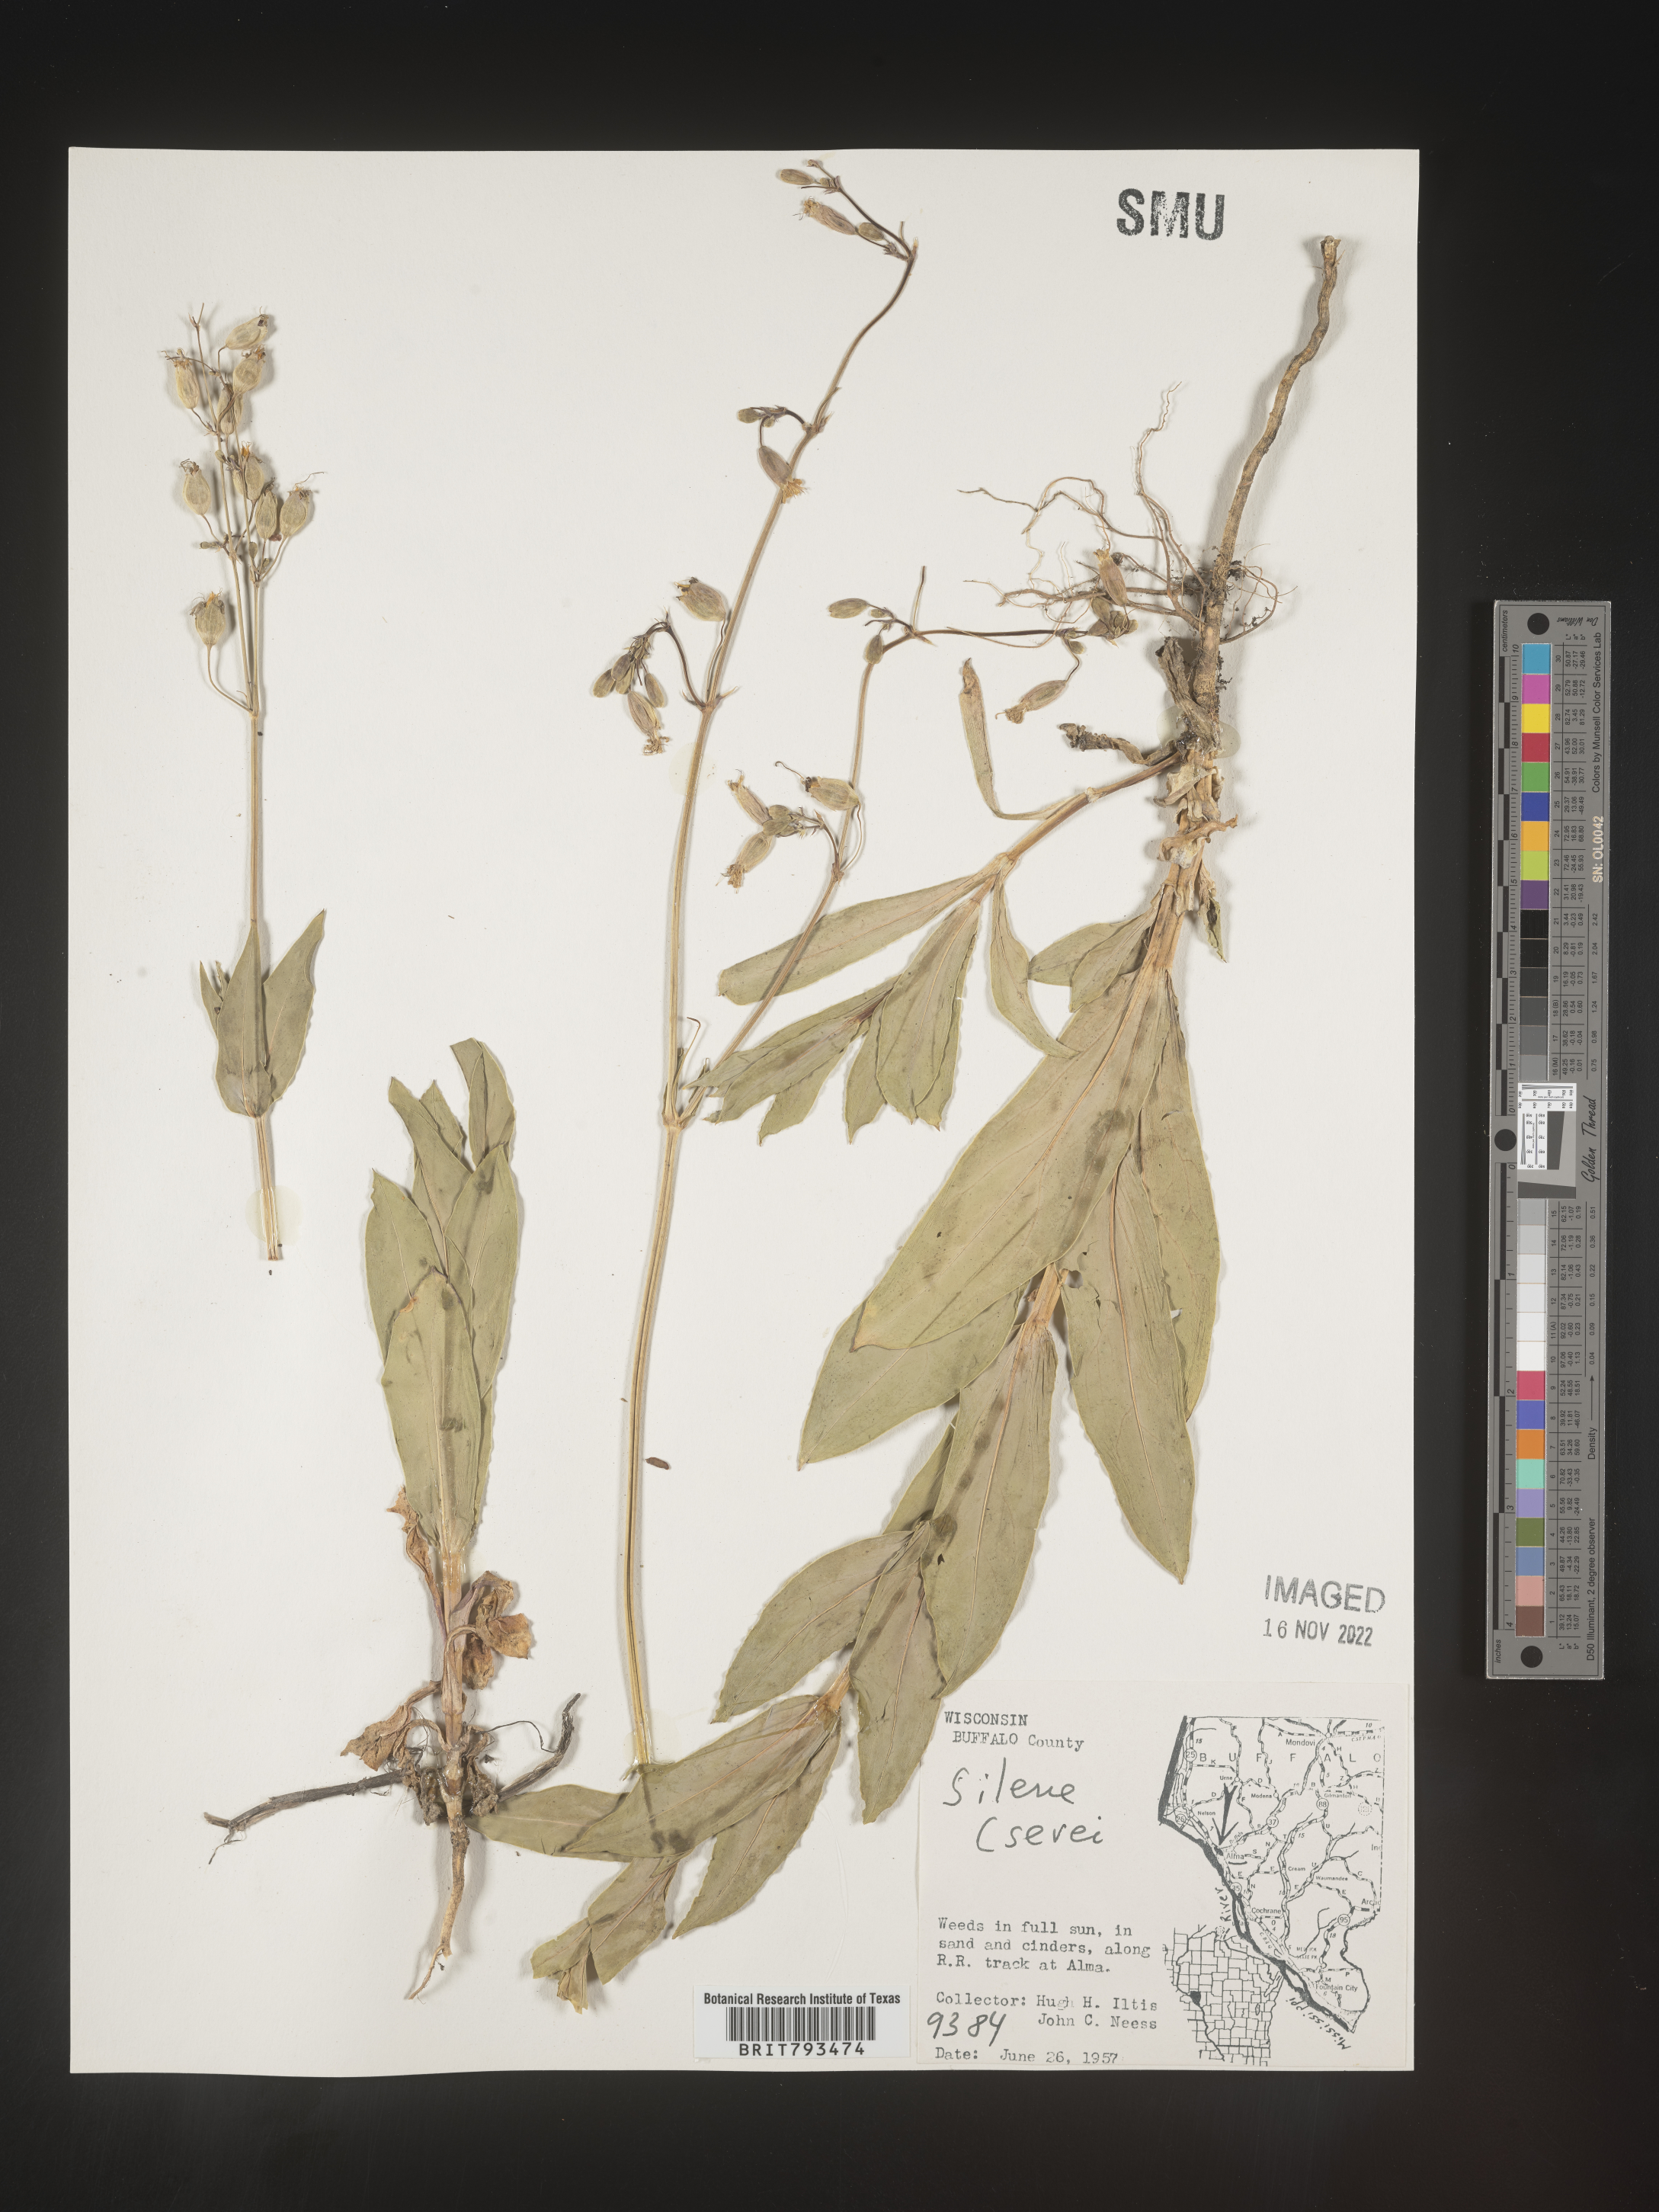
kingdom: Plantae
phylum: Tracheophyta
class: Magnoliopsida
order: Caryophyllales
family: Caryophyllaceae
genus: Silene
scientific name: Silene csereii
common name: Balkan catchfly
